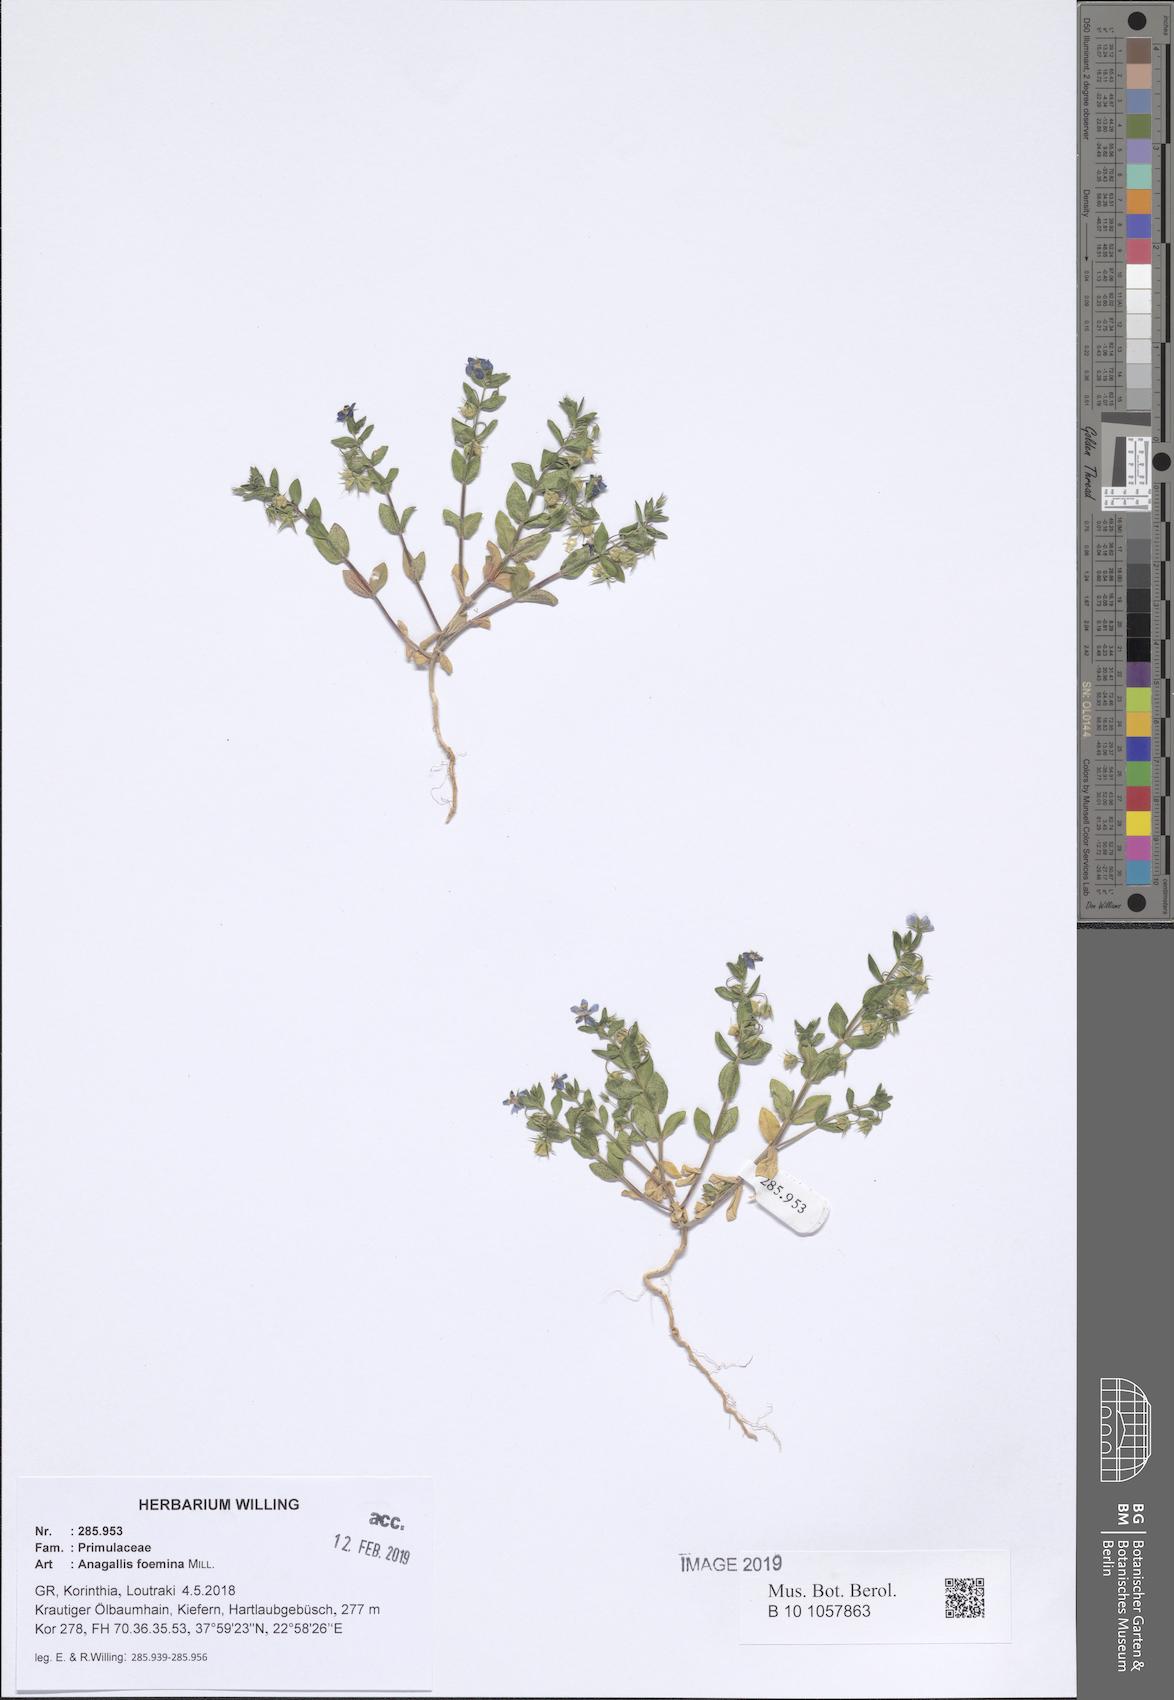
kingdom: Plantae
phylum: Tracheophyta
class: Magnoliopsida
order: Ericales
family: Primulaceae
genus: Lysimachia
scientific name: Lysimachia foemina
